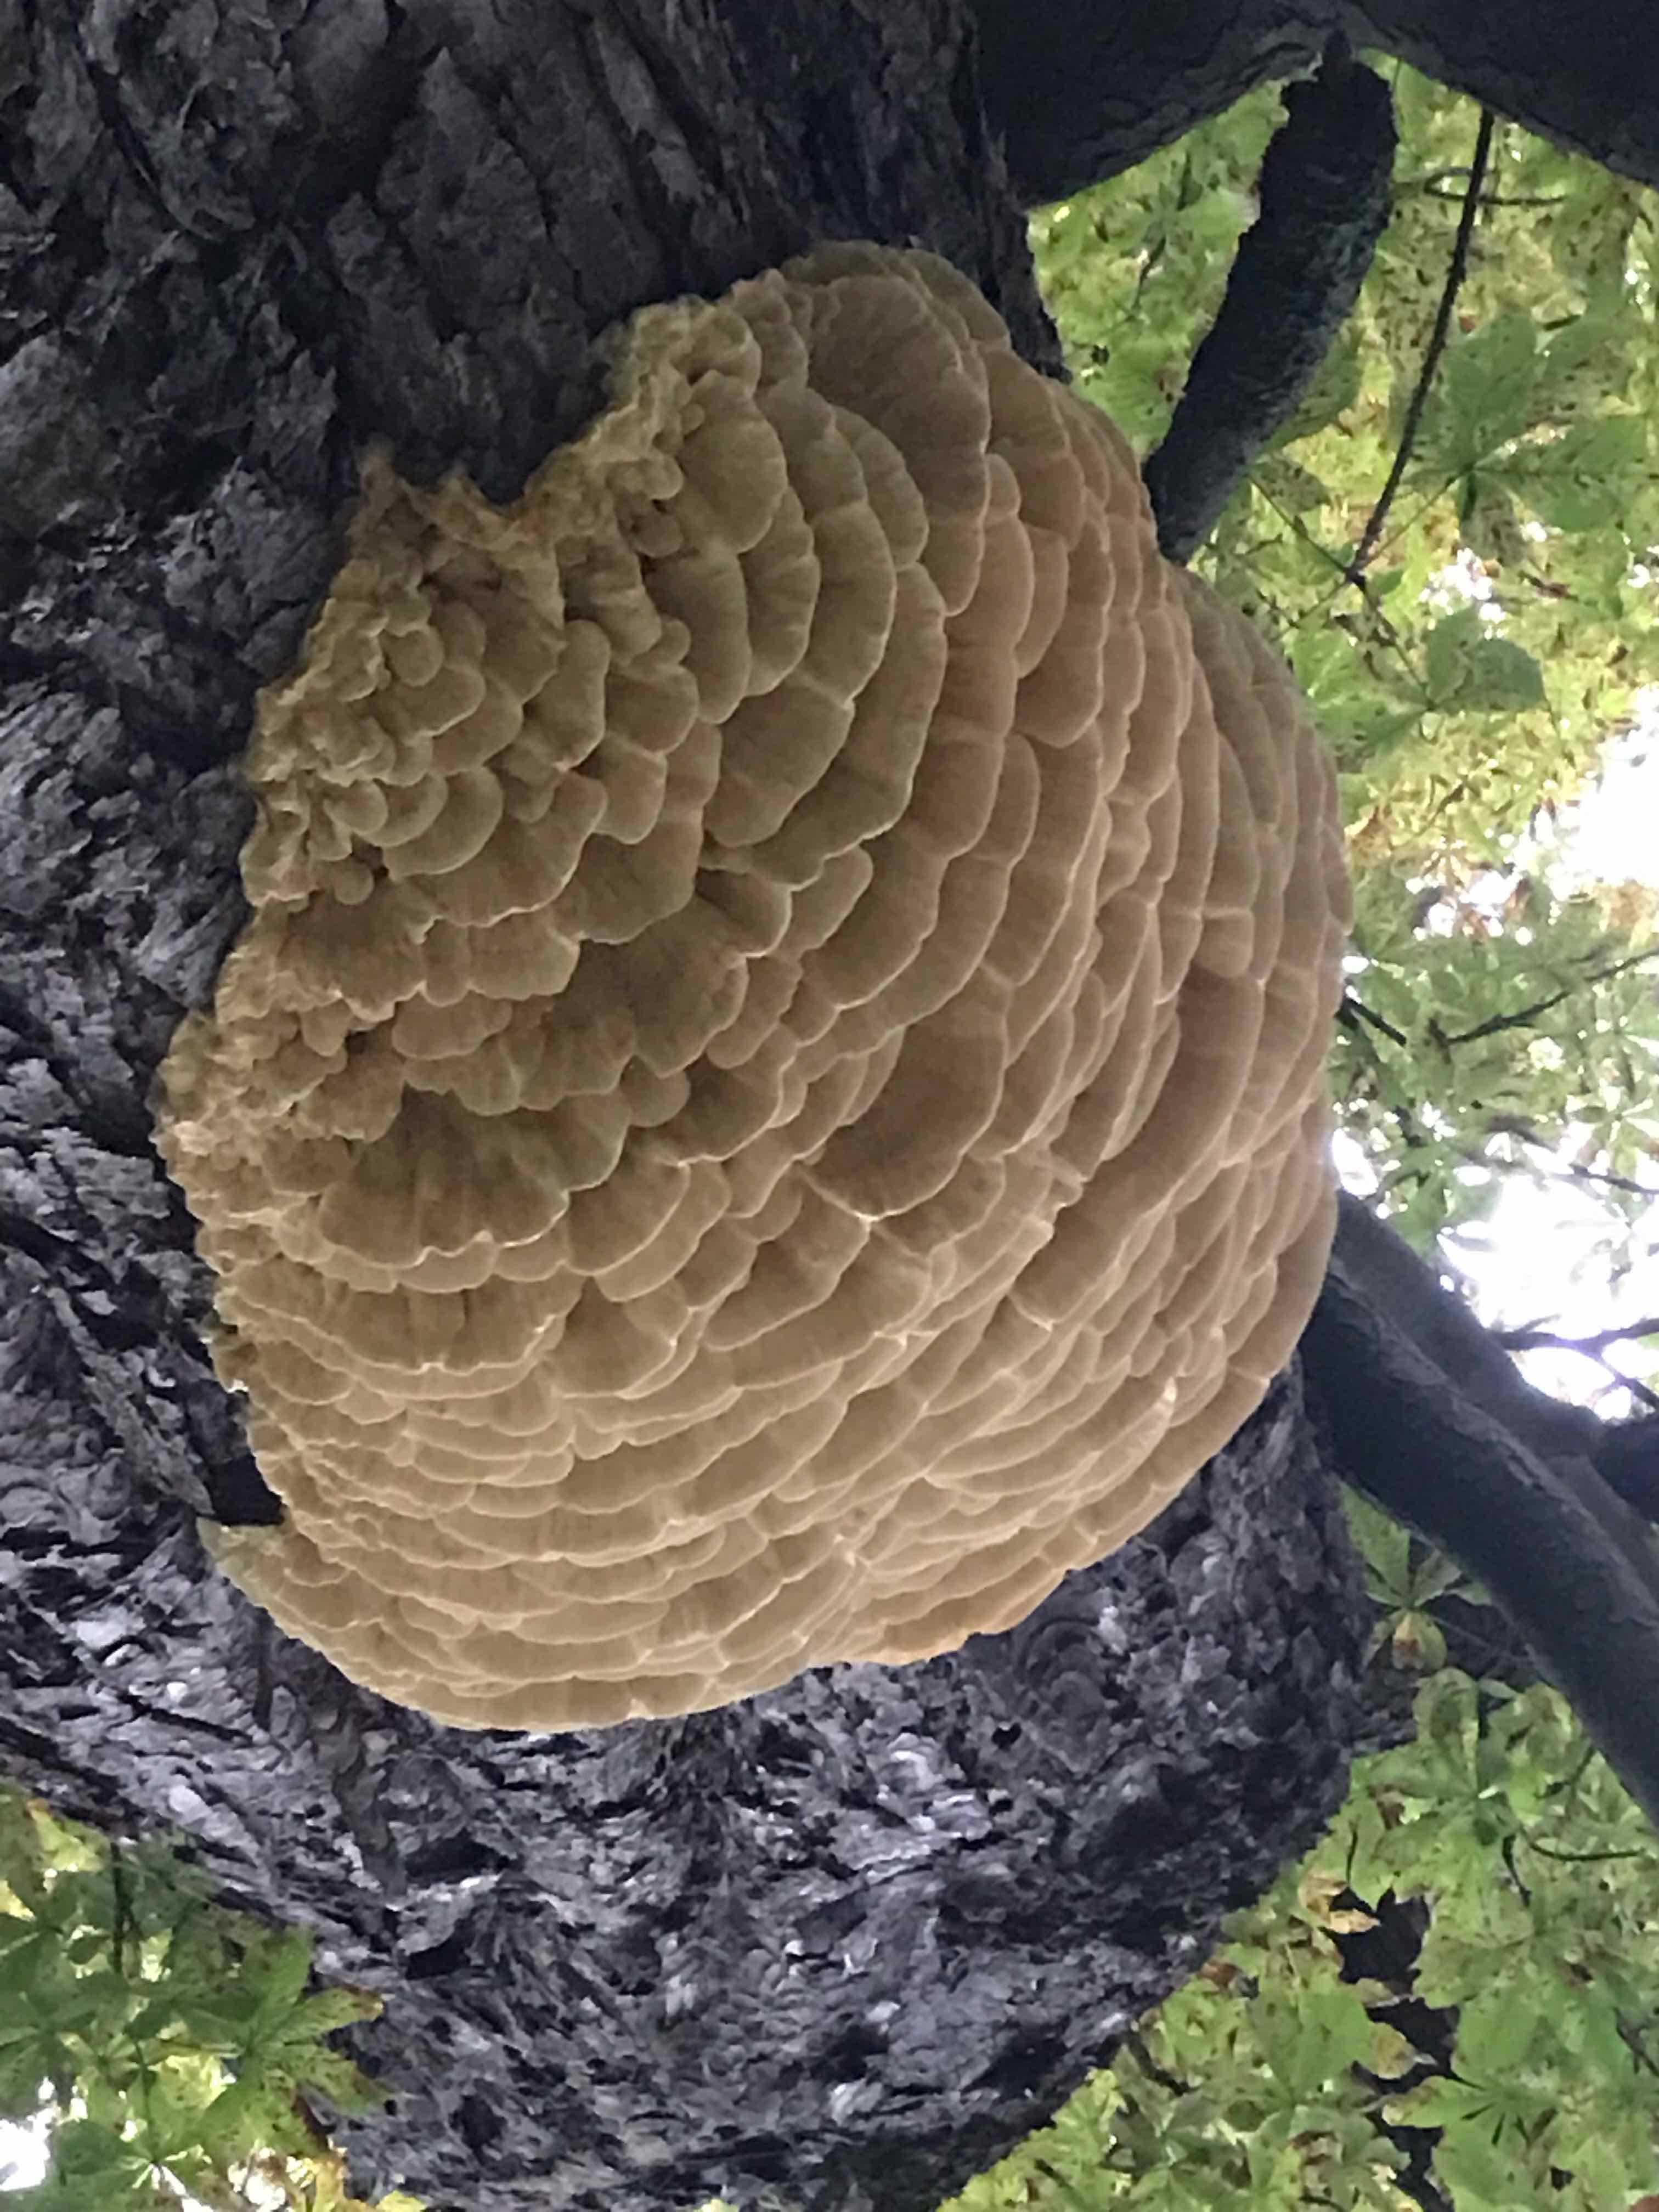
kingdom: Fungi
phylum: Basidiomycota
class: Agaricomycetes
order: Polyporales
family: Meruliaceae
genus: Climacodon
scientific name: Climacodon septentrionalis
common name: kæmpepigsvamp
